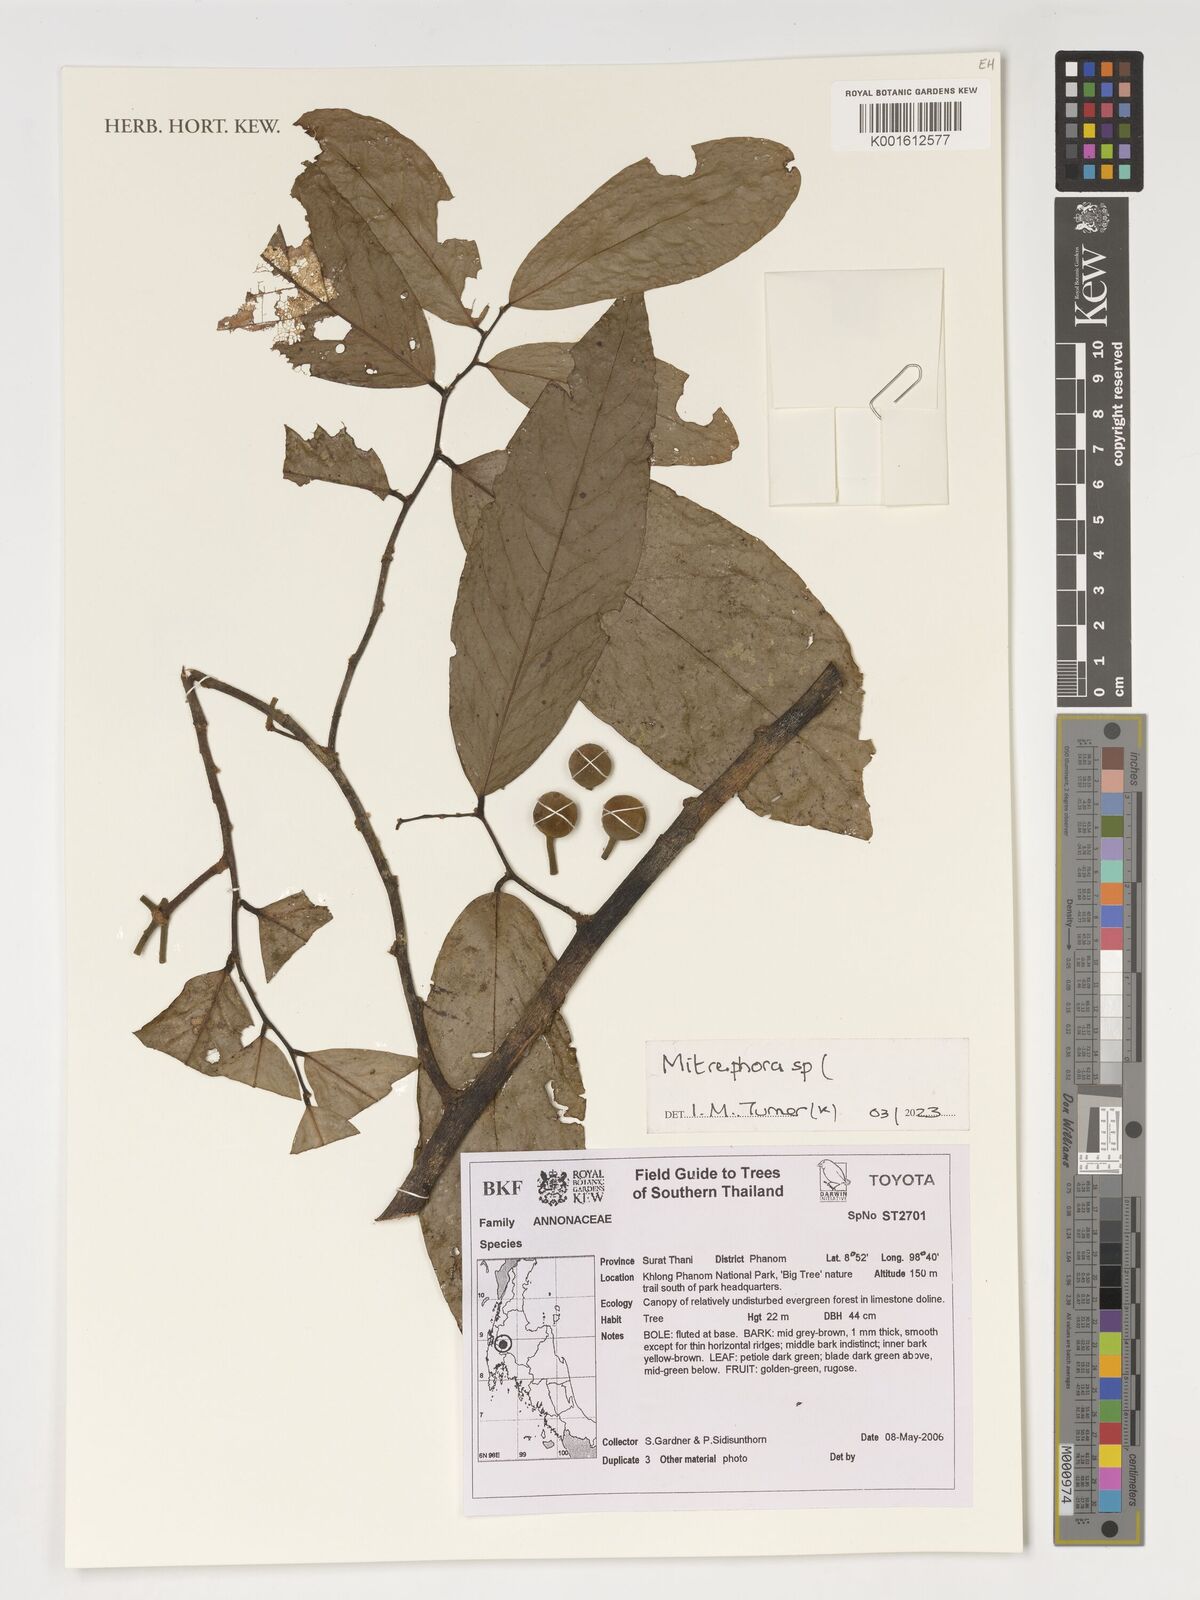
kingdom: Plantae
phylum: Tracheophyta
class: Magnoliopsida
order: Magnoliales
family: Annonaceae
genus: Mitrephora
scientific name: Mitrephora
